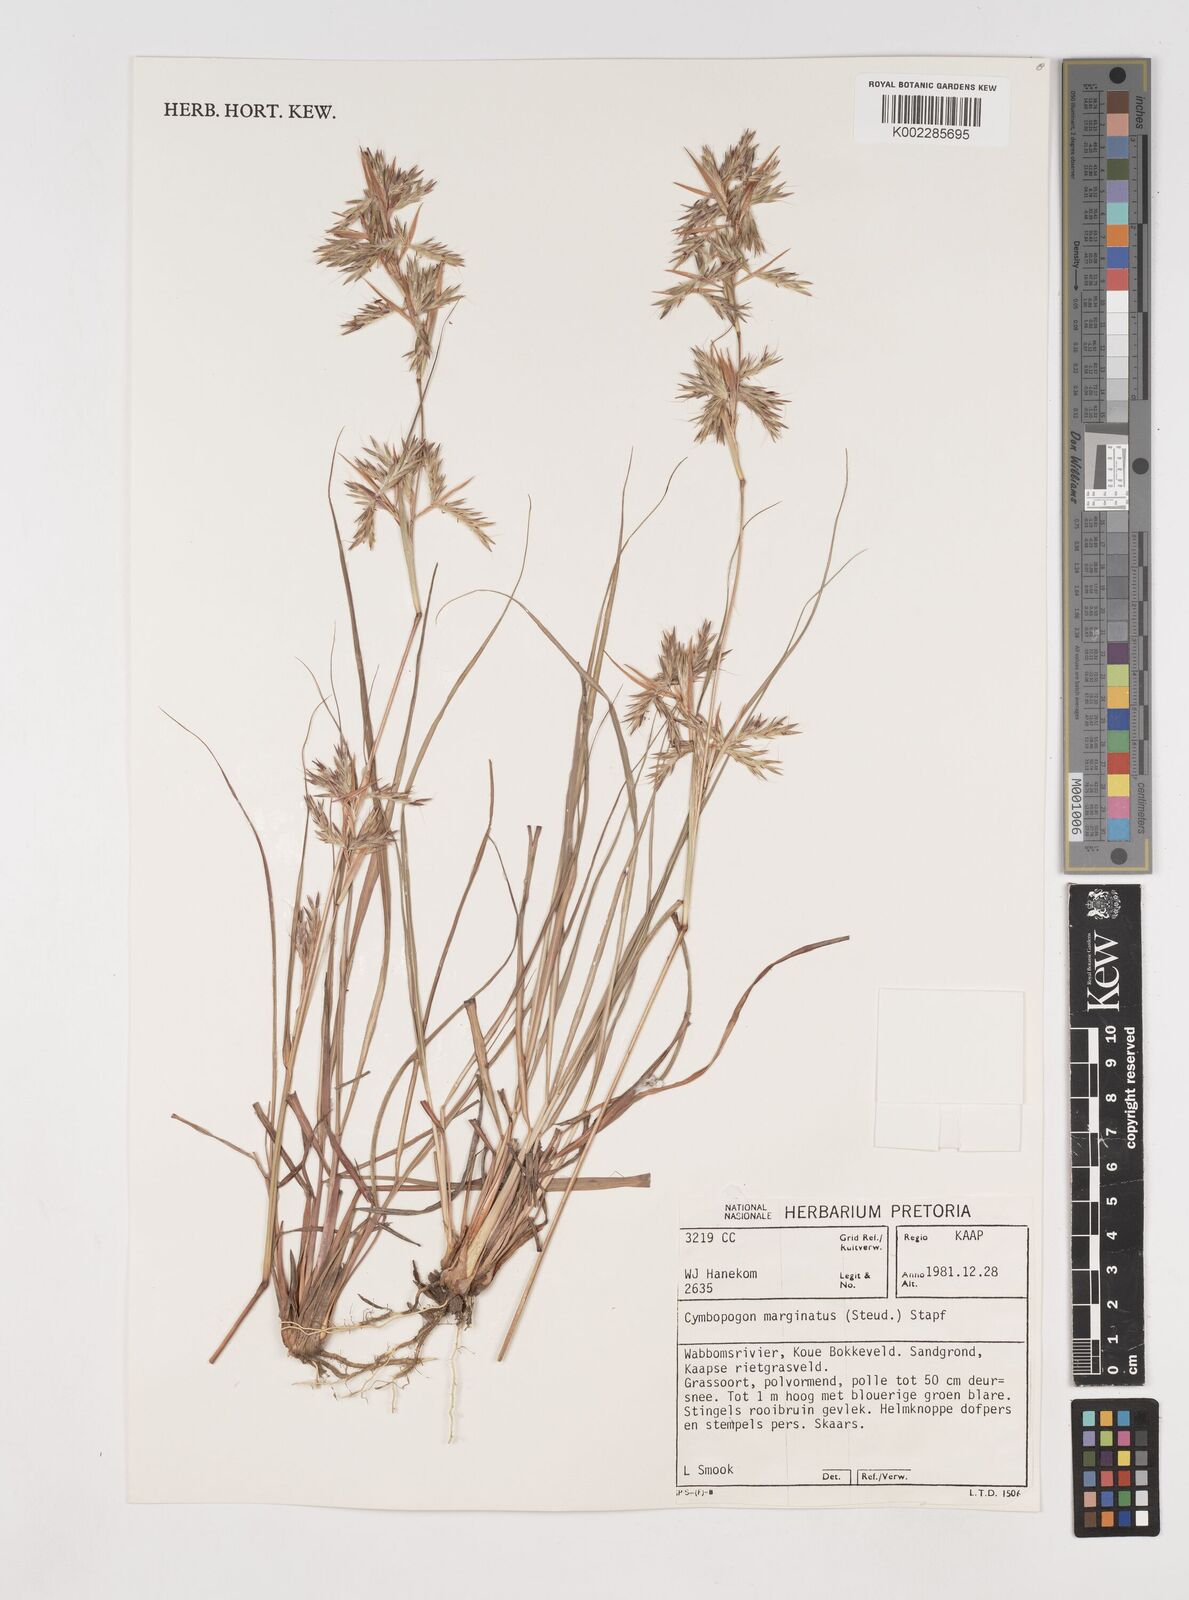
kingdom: Plantae
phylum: Tracheophyta
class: Liliopsida
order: Poales
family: Poaceae
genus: Cymbopogon
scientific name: Cymbopogon marginatus
